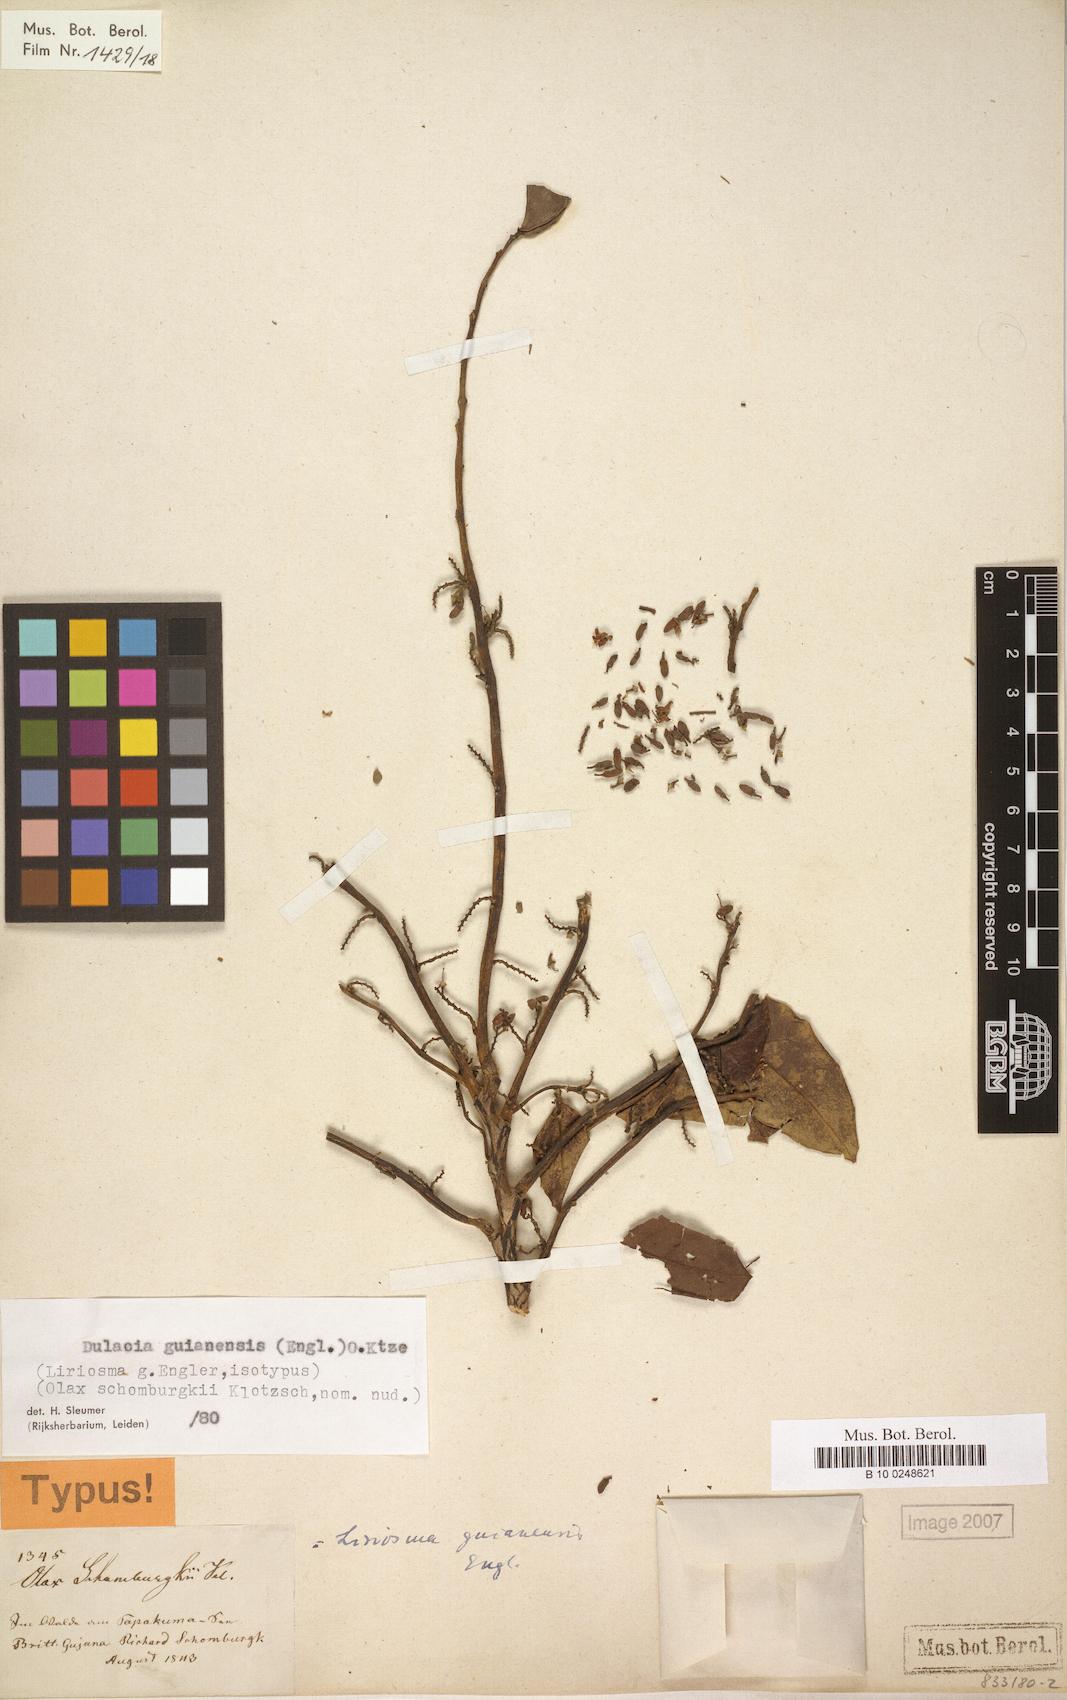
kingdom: Plantae
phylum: Tracheophyta
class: Magnoliopsida
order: Santalales
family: Olacaceae
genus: Dulacia
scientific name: Dulacia guianensis
